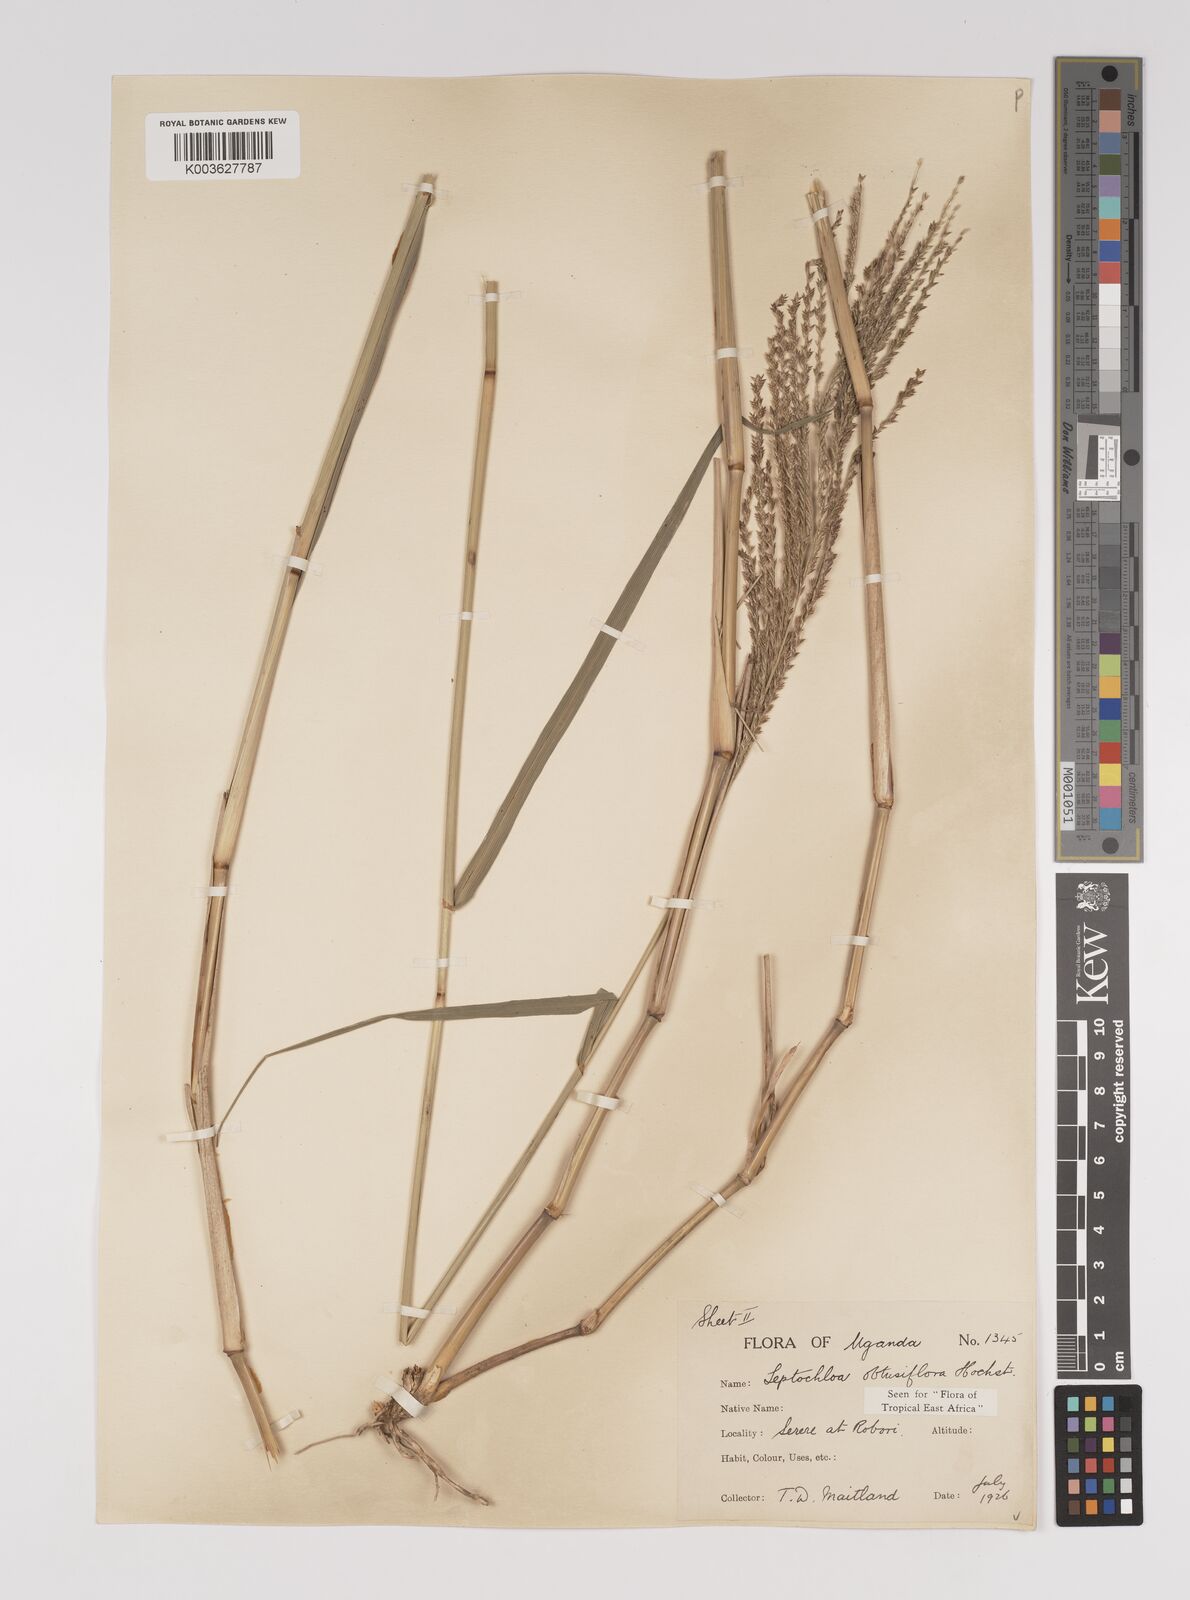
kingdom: Plantae
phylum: Tracheophyta
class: Liliopsida
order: Poales
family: Poaceae
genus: Disakisperma
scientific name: Disakisperma obtusiflorum
